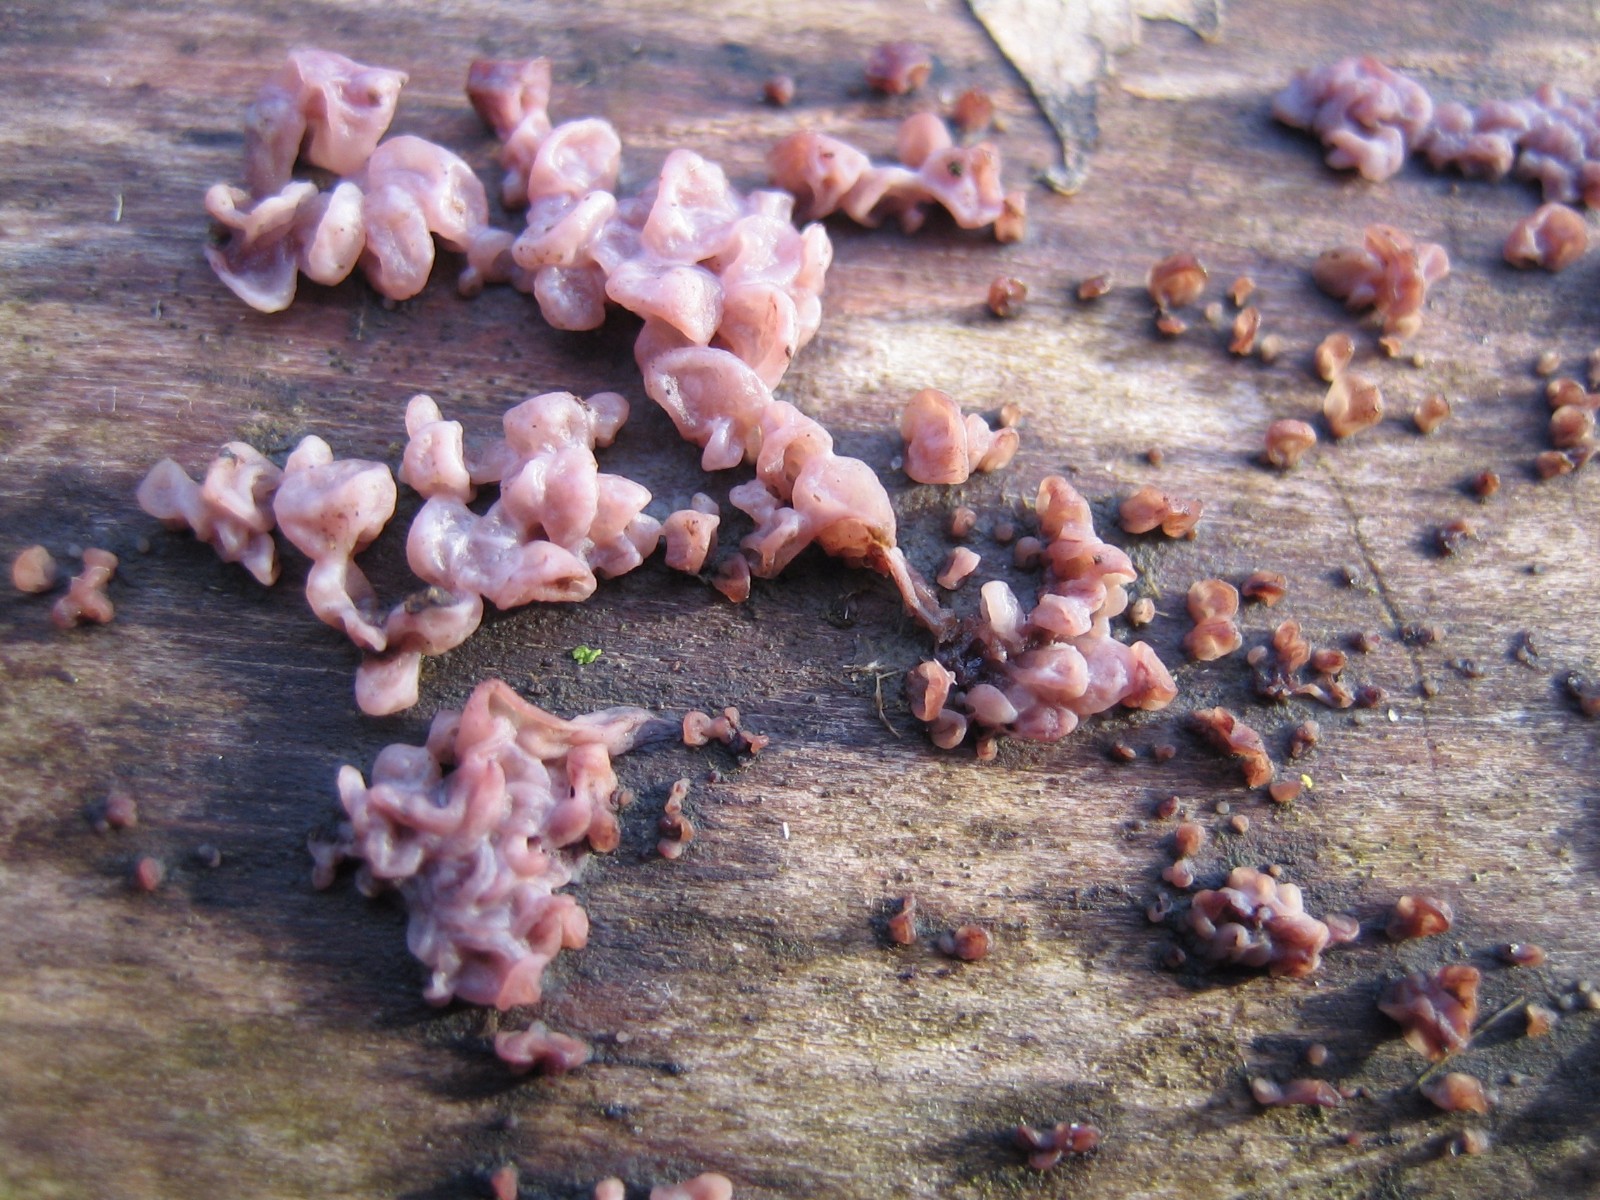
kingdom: Fungi
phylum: Ascomycota
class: Leotiomycetes
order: Helotiales
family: Gelatinodiscaceae
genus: Ascocoryne
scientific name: Ascocoryne sarcoides
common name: rødlilla sejskive
